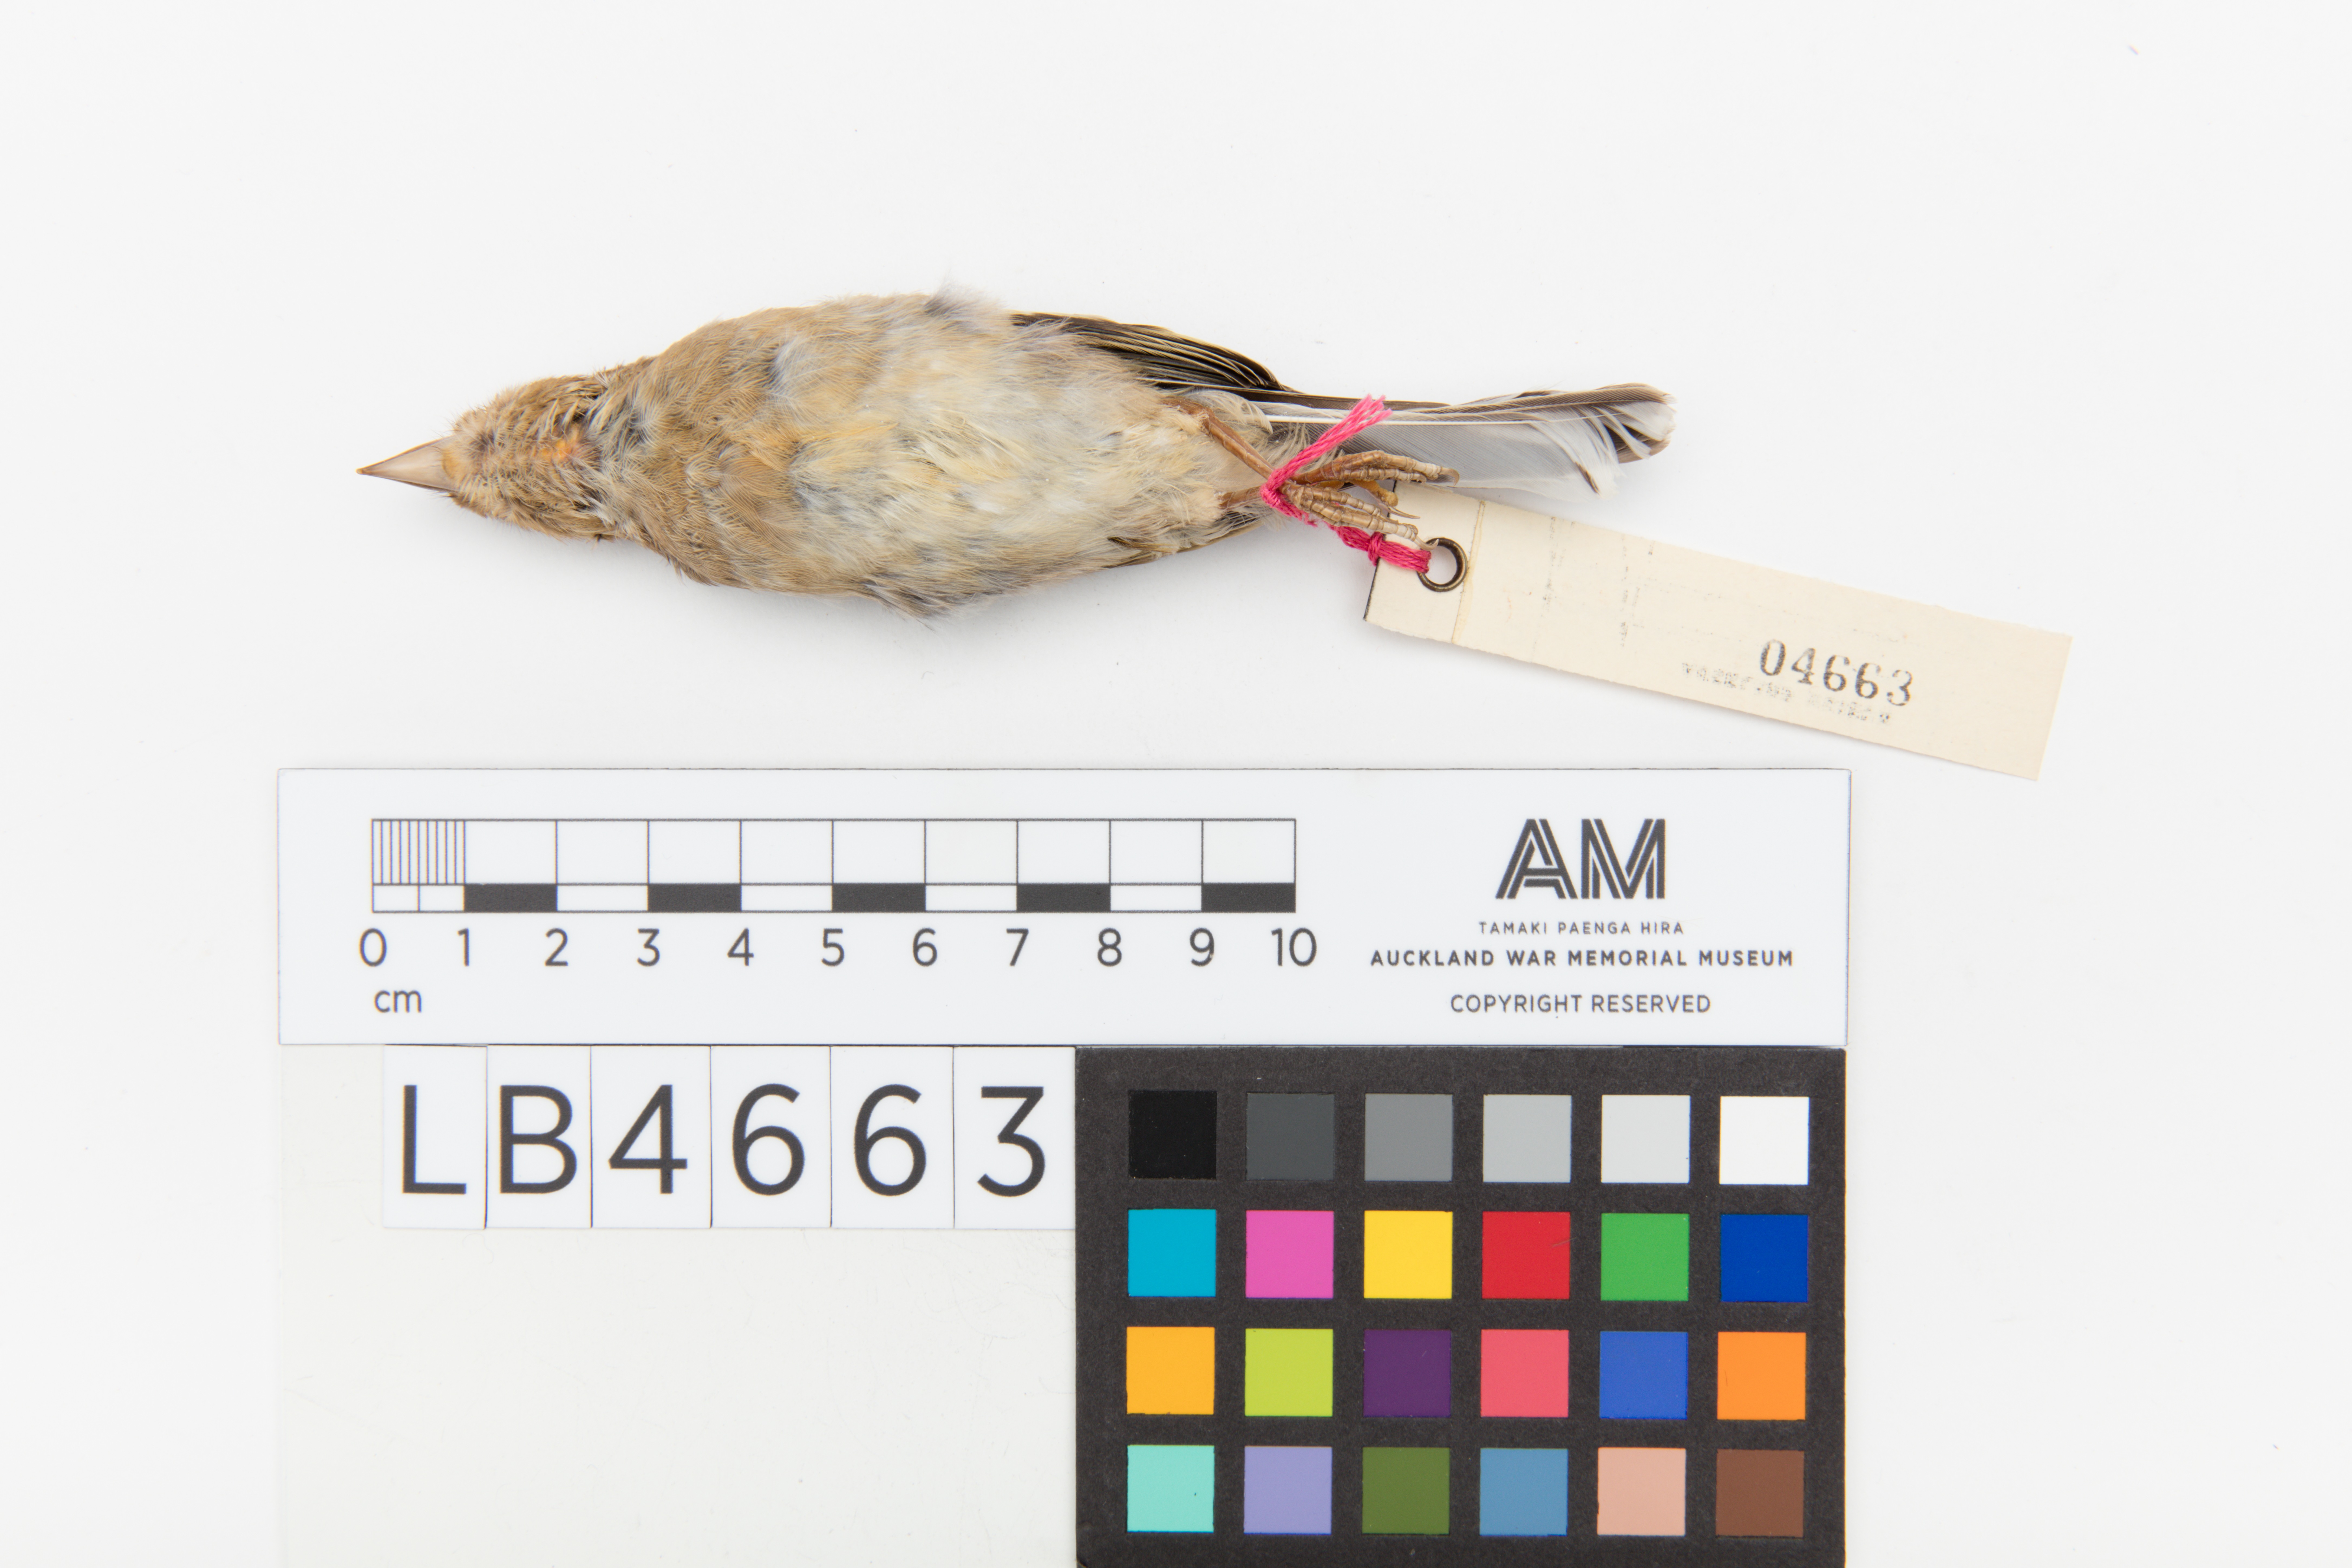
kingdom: Animalia
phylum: Chordata
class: Aves
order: Passeriformes
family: Fringillidae
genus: Fringilla
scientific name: Fringilla coelebs
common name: Common chaffinch
